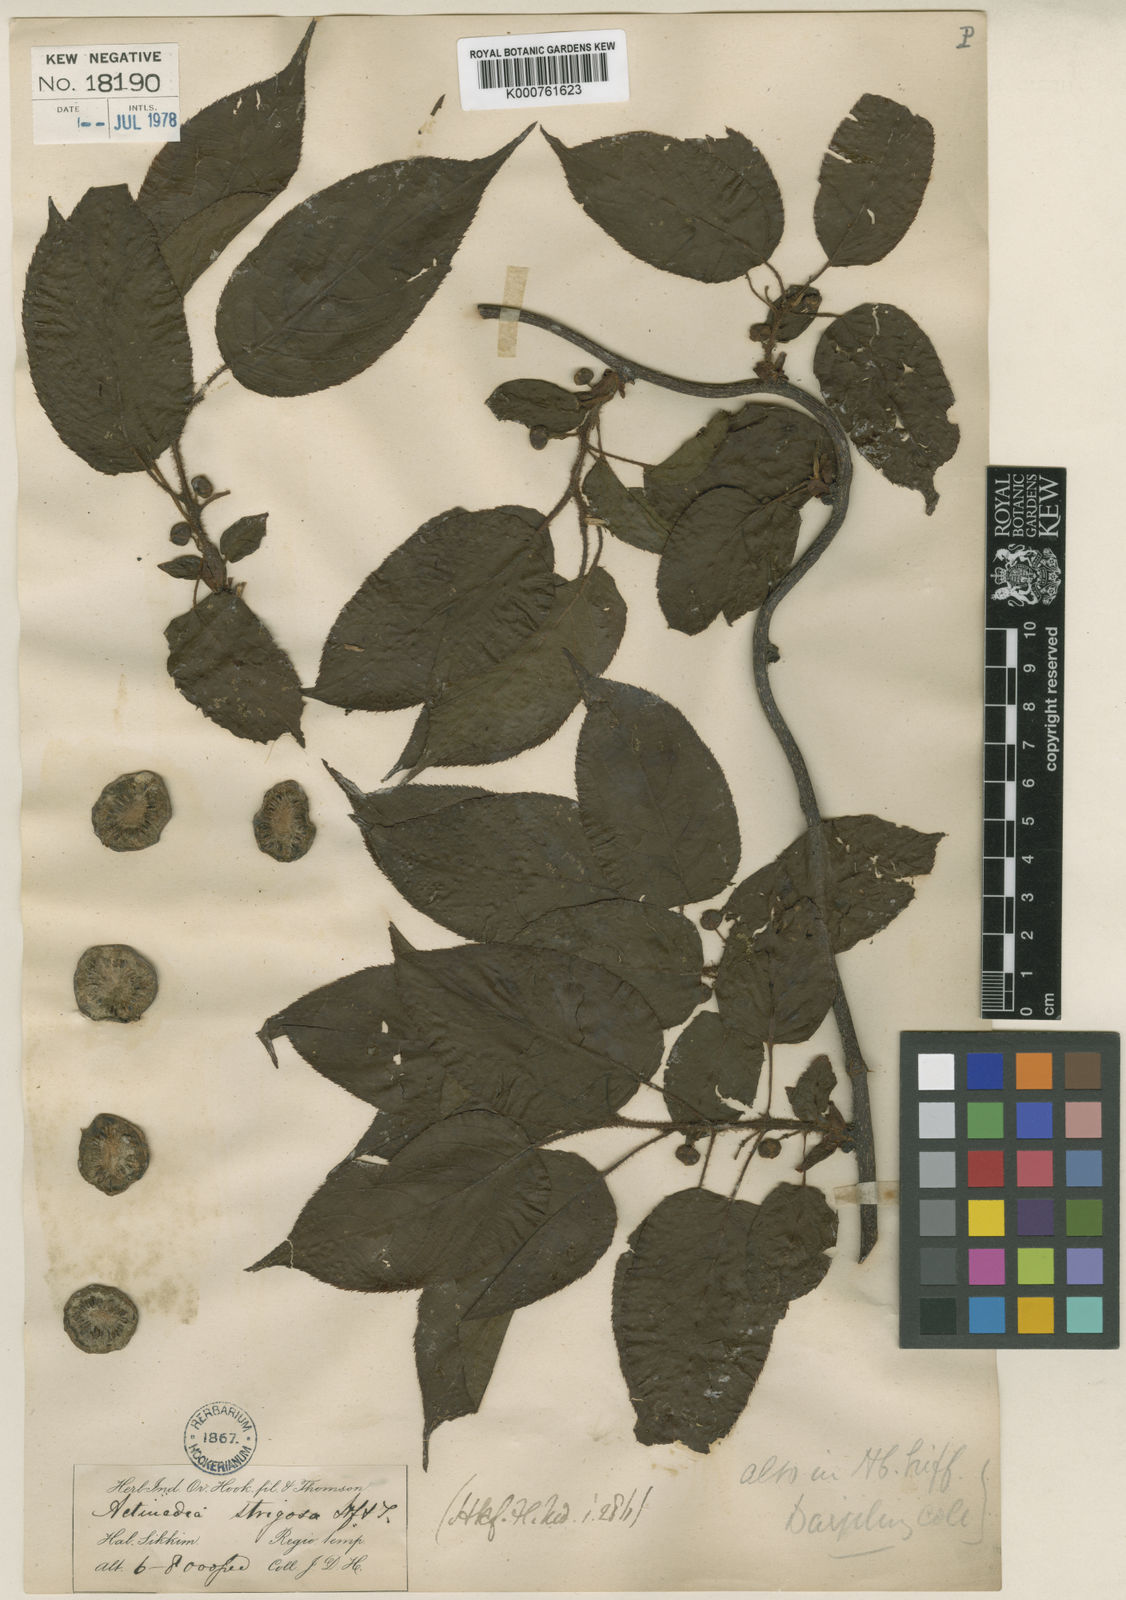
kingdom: Plantae
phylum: Tracheophyta
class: Magnoliopsida
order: Ericales
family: Actinidiaceae
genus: Actinidia
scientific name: Actinidia strigosa
